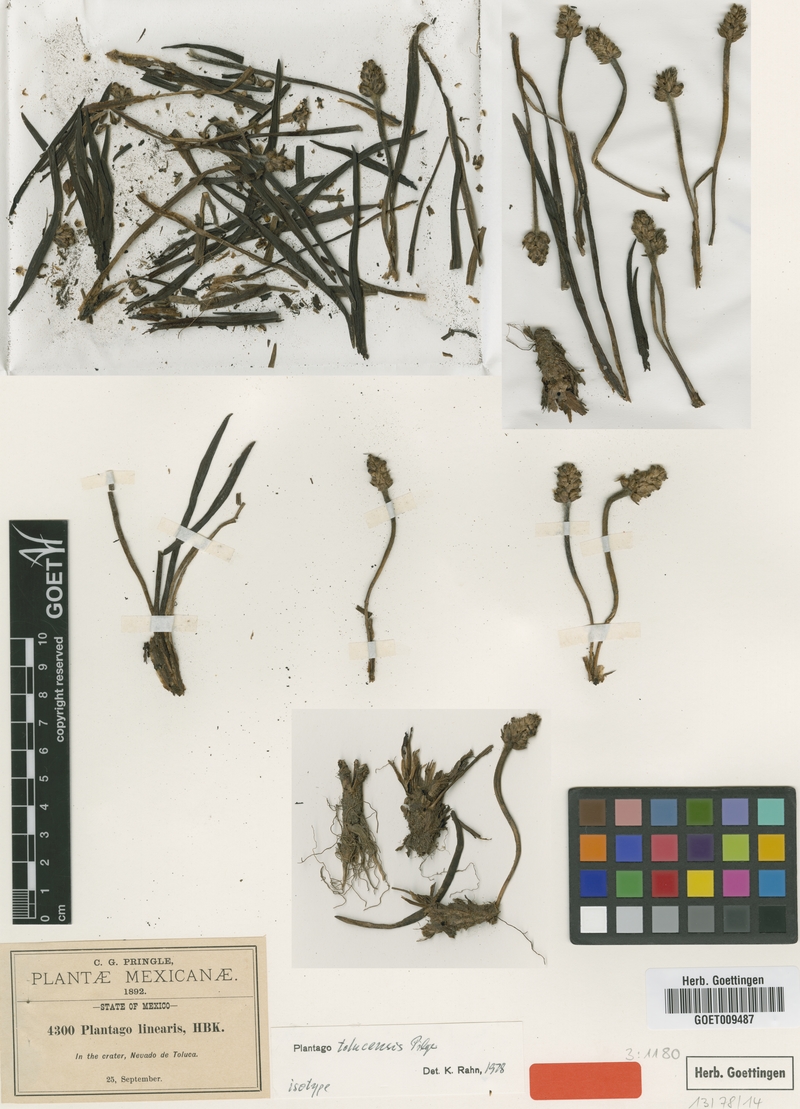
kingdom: Plantae
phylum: Tracheophyta
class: Magnoliopsida
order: Lamiales
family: Plantaginaceae
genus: Plantago
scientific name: Plantago tolucensis
